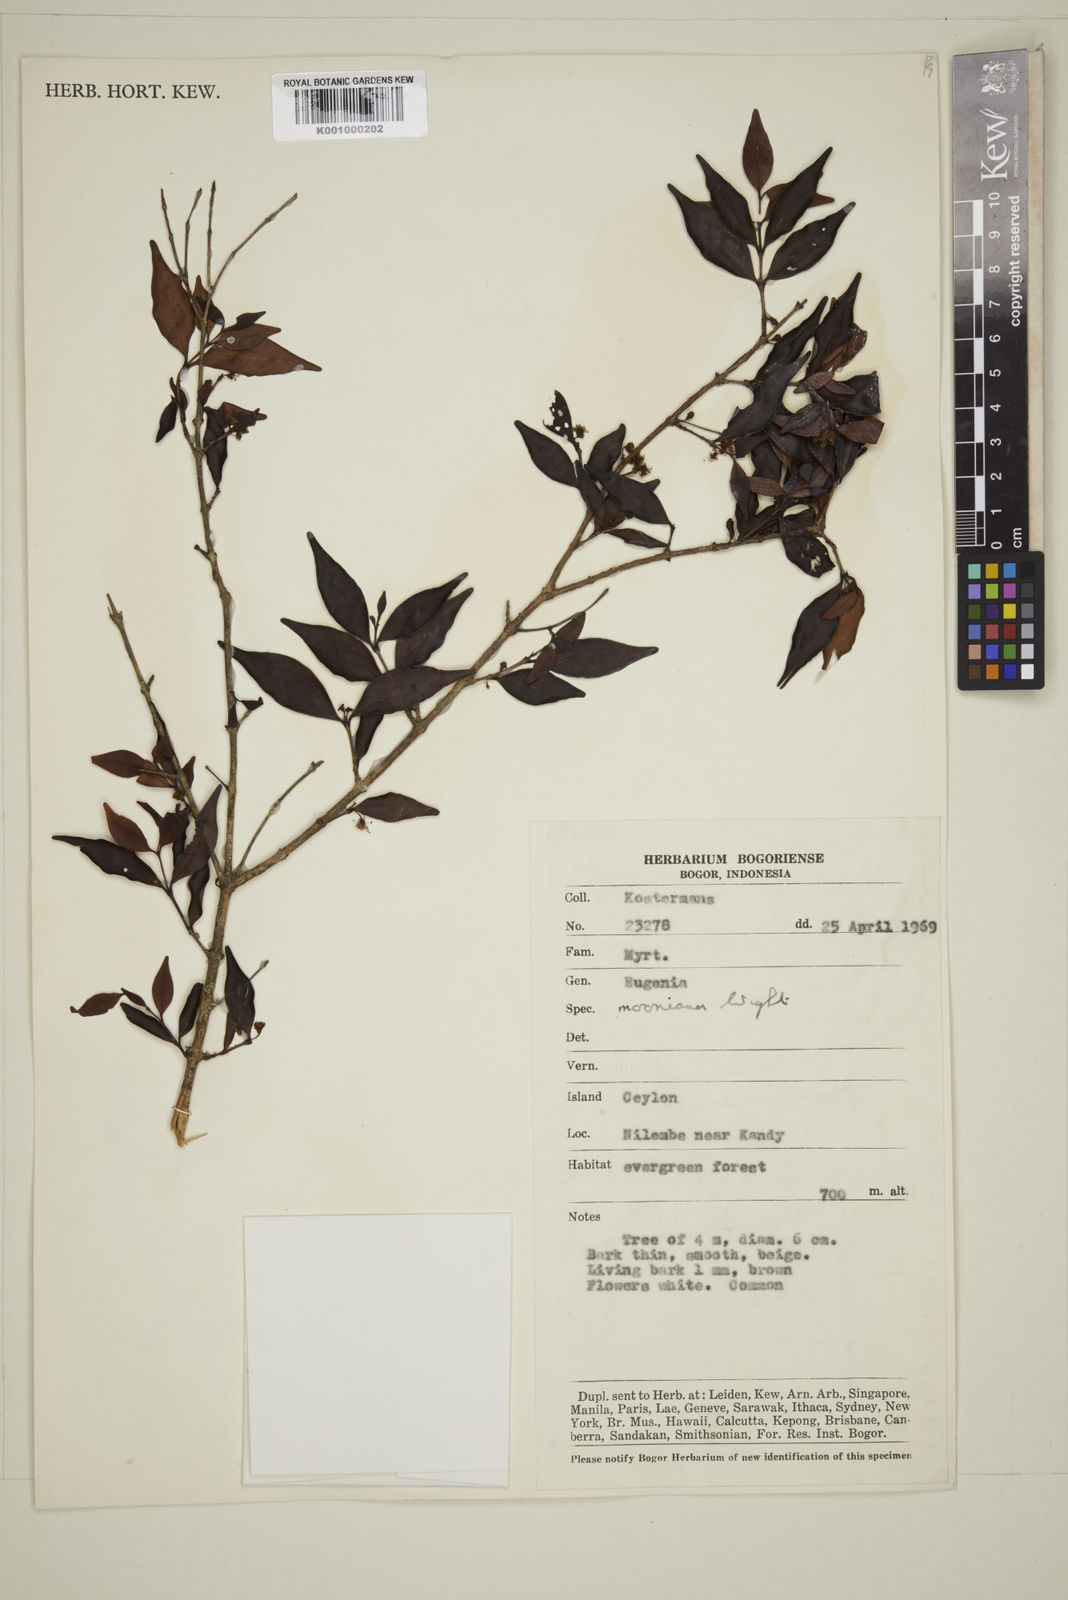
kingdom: Plantae
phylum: Tracheophyta
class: Magnoliopsida
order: Myrtales
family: Myrtaceae
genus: Eugenia
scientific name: Eugenia thwaitesii
